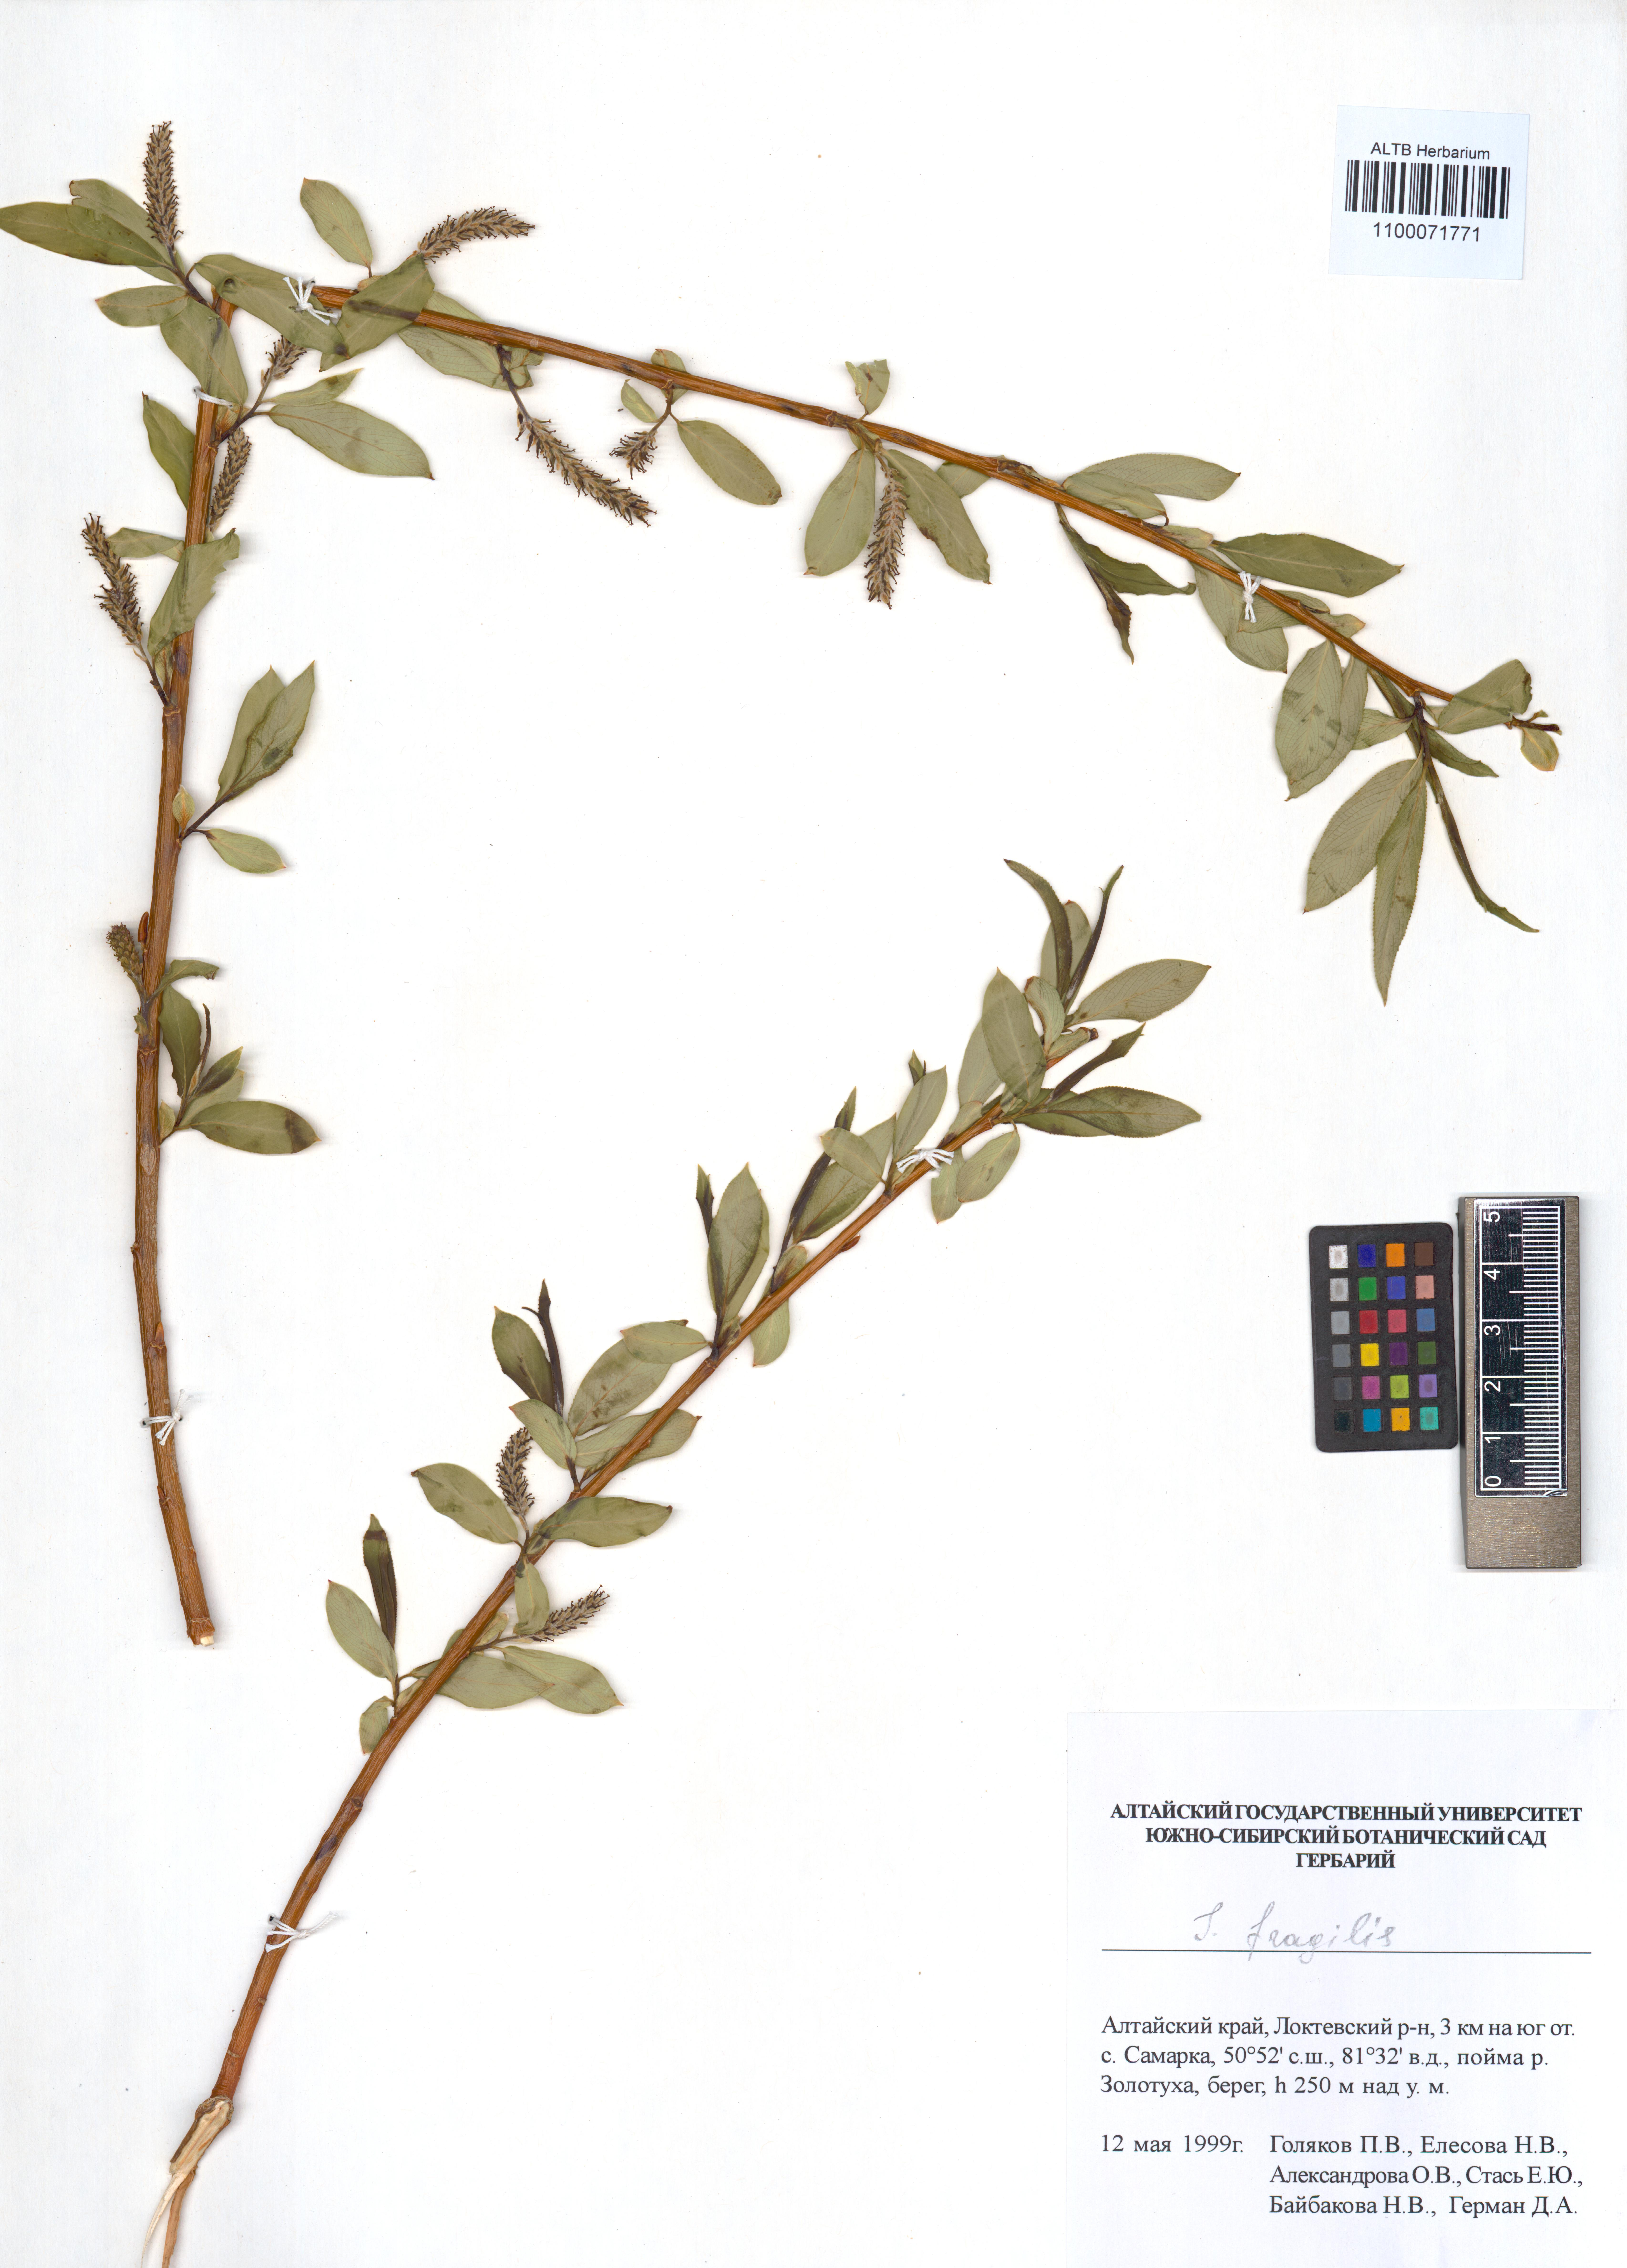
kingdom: Plantae
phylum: Tracheophyta
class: Magnoliopsida
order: Malpighiales
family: Salicaceae
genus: Salix
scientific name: Salix fragilis
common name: Crack willow
